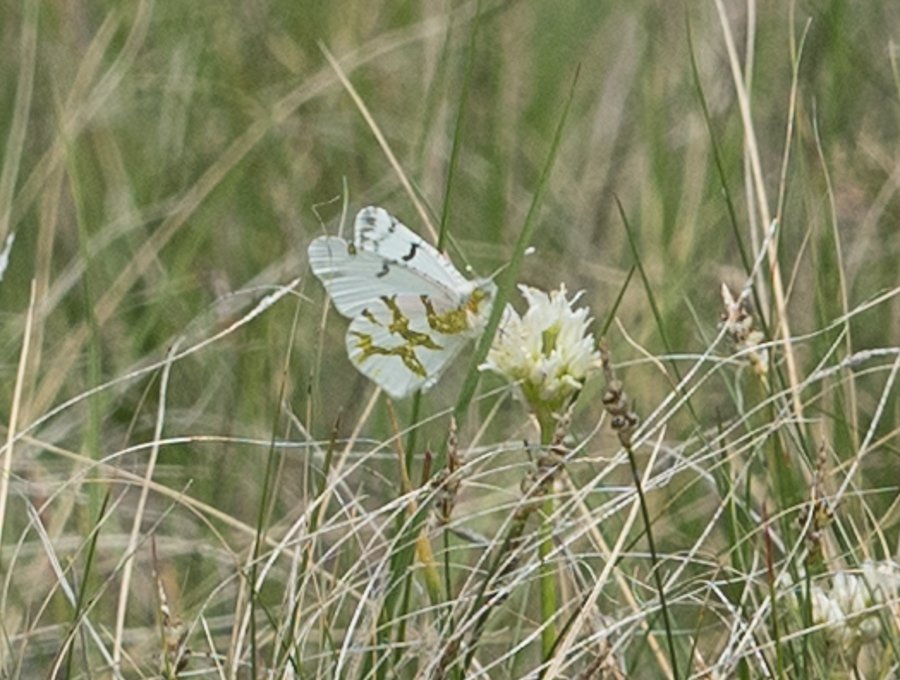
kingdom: Animalia
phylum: Arthropoda
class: Insecta
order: Lepidoptera
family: Pieridae
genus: Euchloe
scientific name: Euchloe olympia
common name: Olympia Marble
